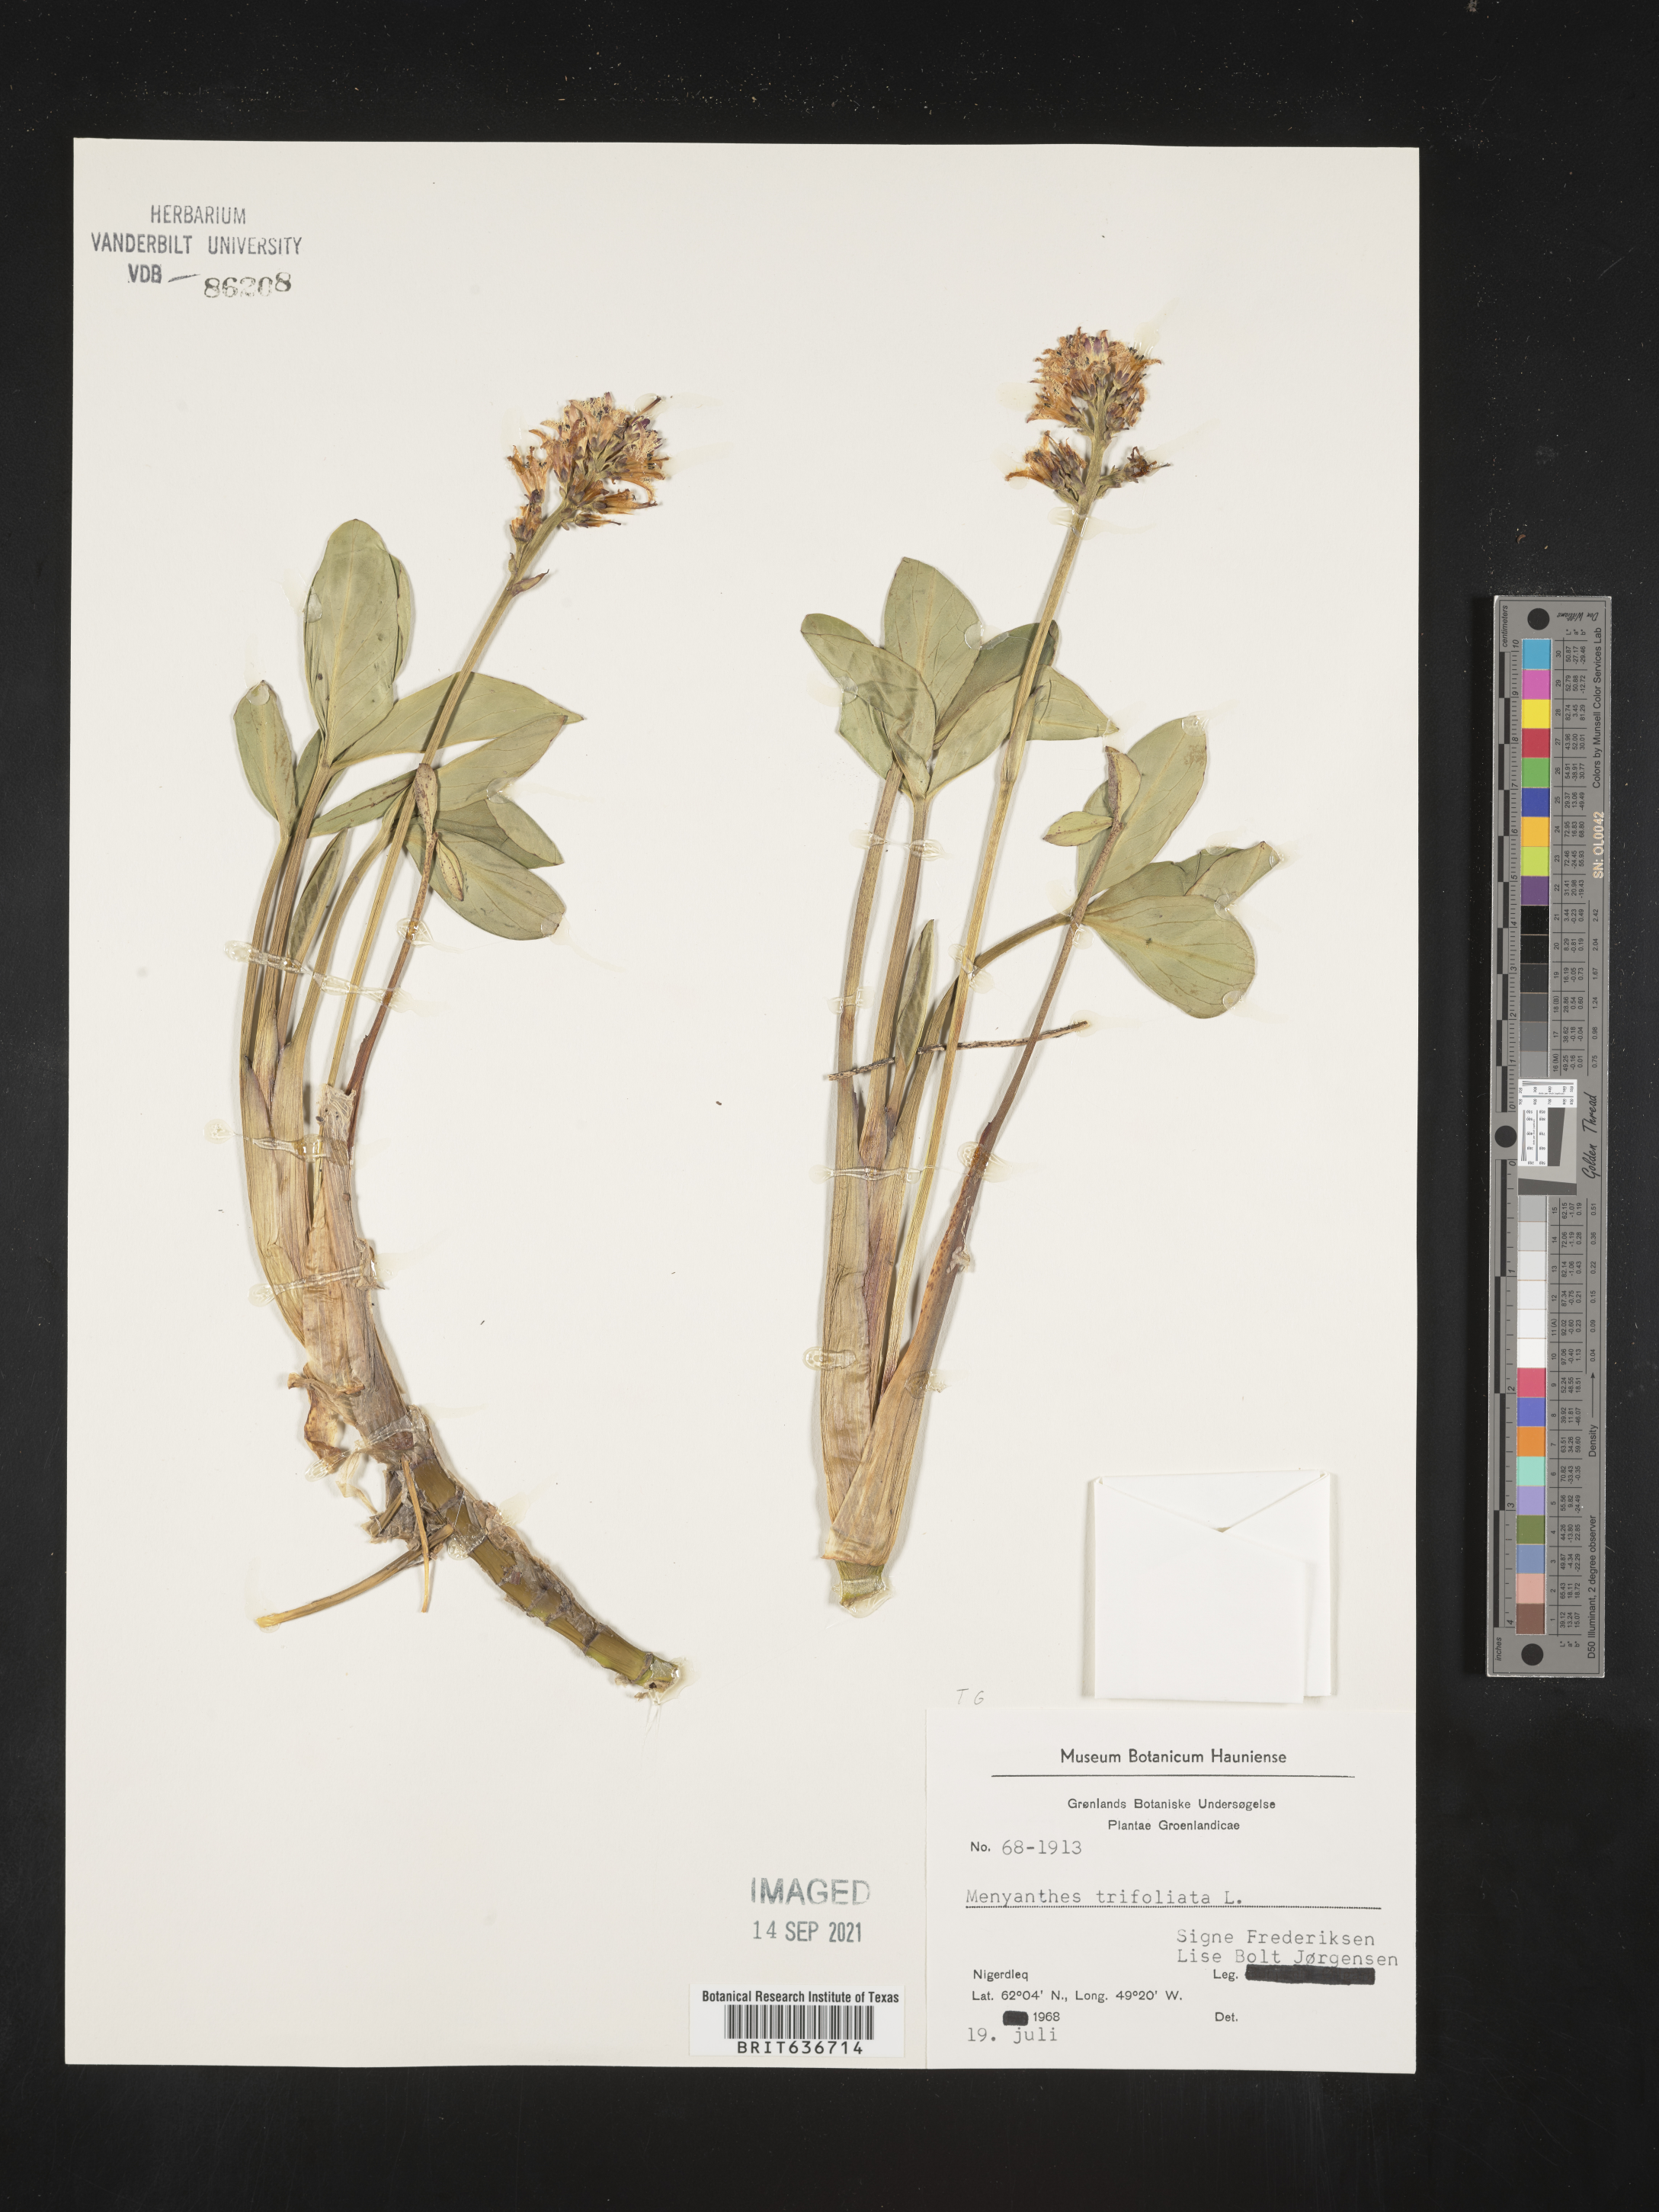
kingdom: Plantae
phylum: Tracheophyta
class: Magnoliopsida
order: Asterales
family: Menyanthaceae
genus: Menyanthes
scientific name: Menyanthes
